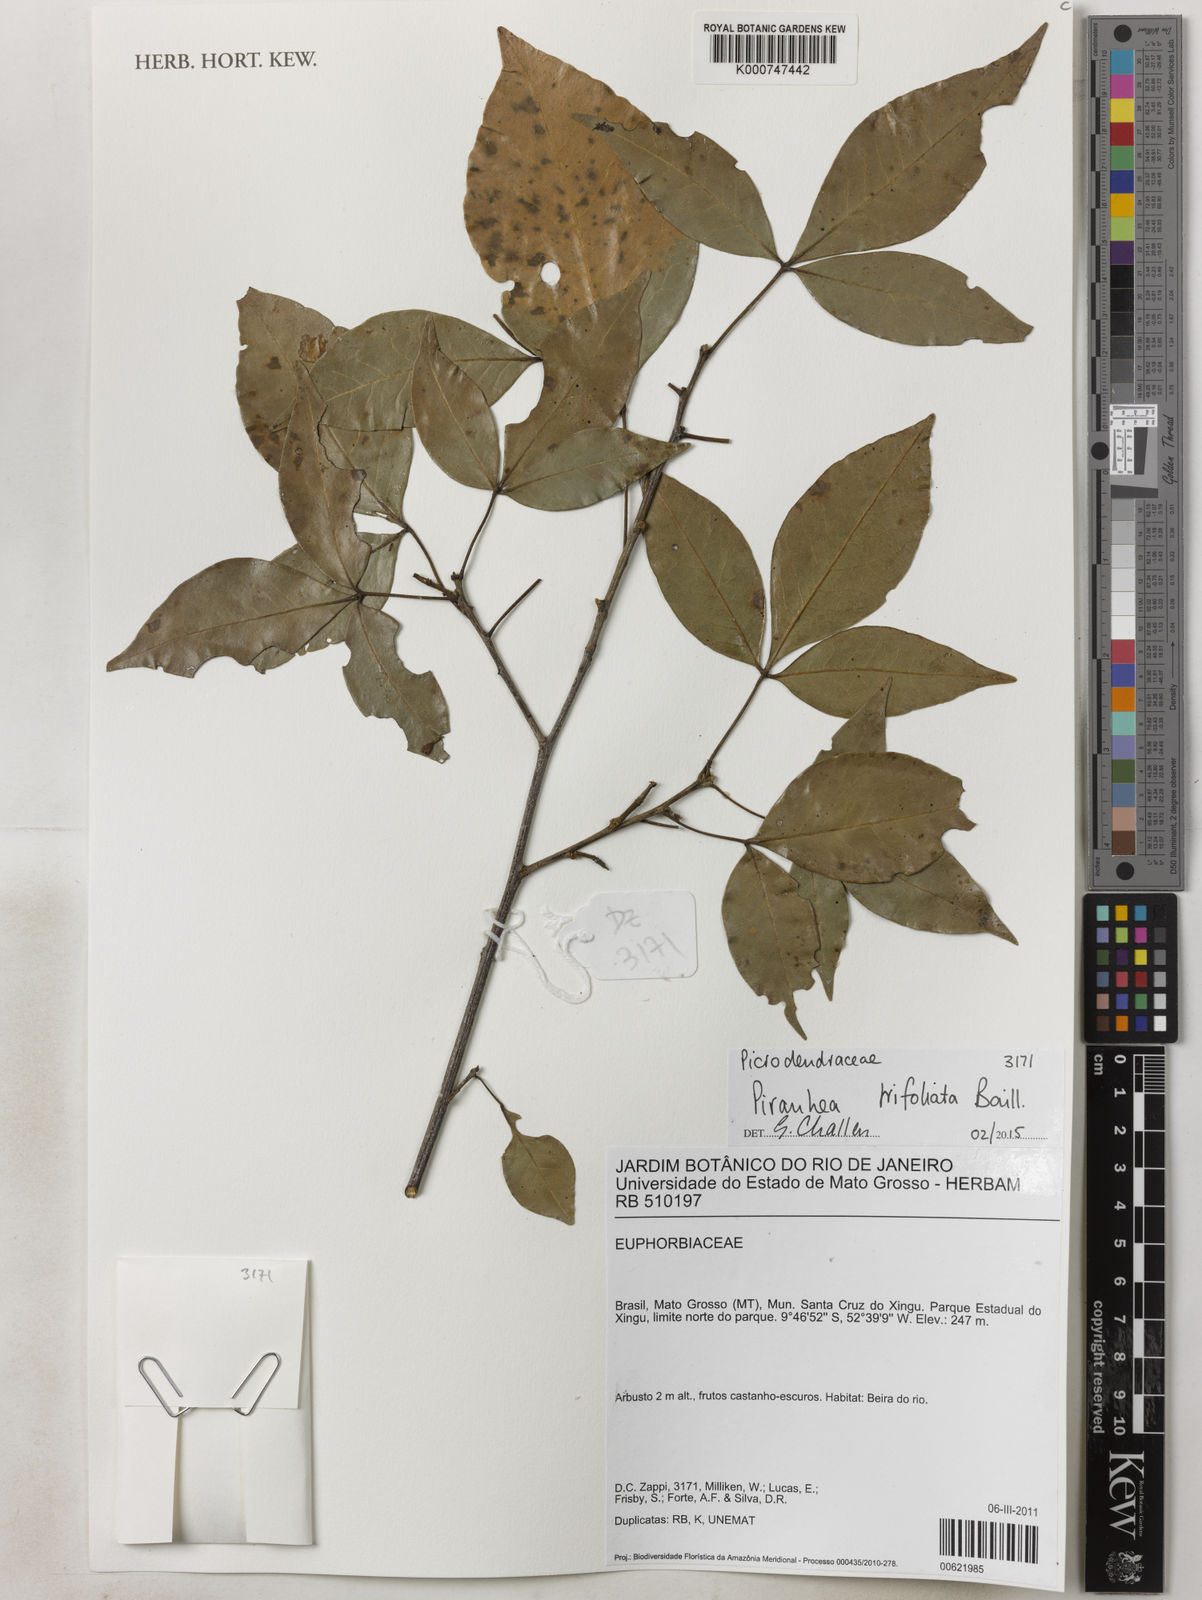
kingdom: Plantae
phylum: Tracheophyta
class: Magnoliopsida
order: Malpighiales
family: Picrodendraceae
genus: Piranhea
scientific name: Piranhea trifoliolata
